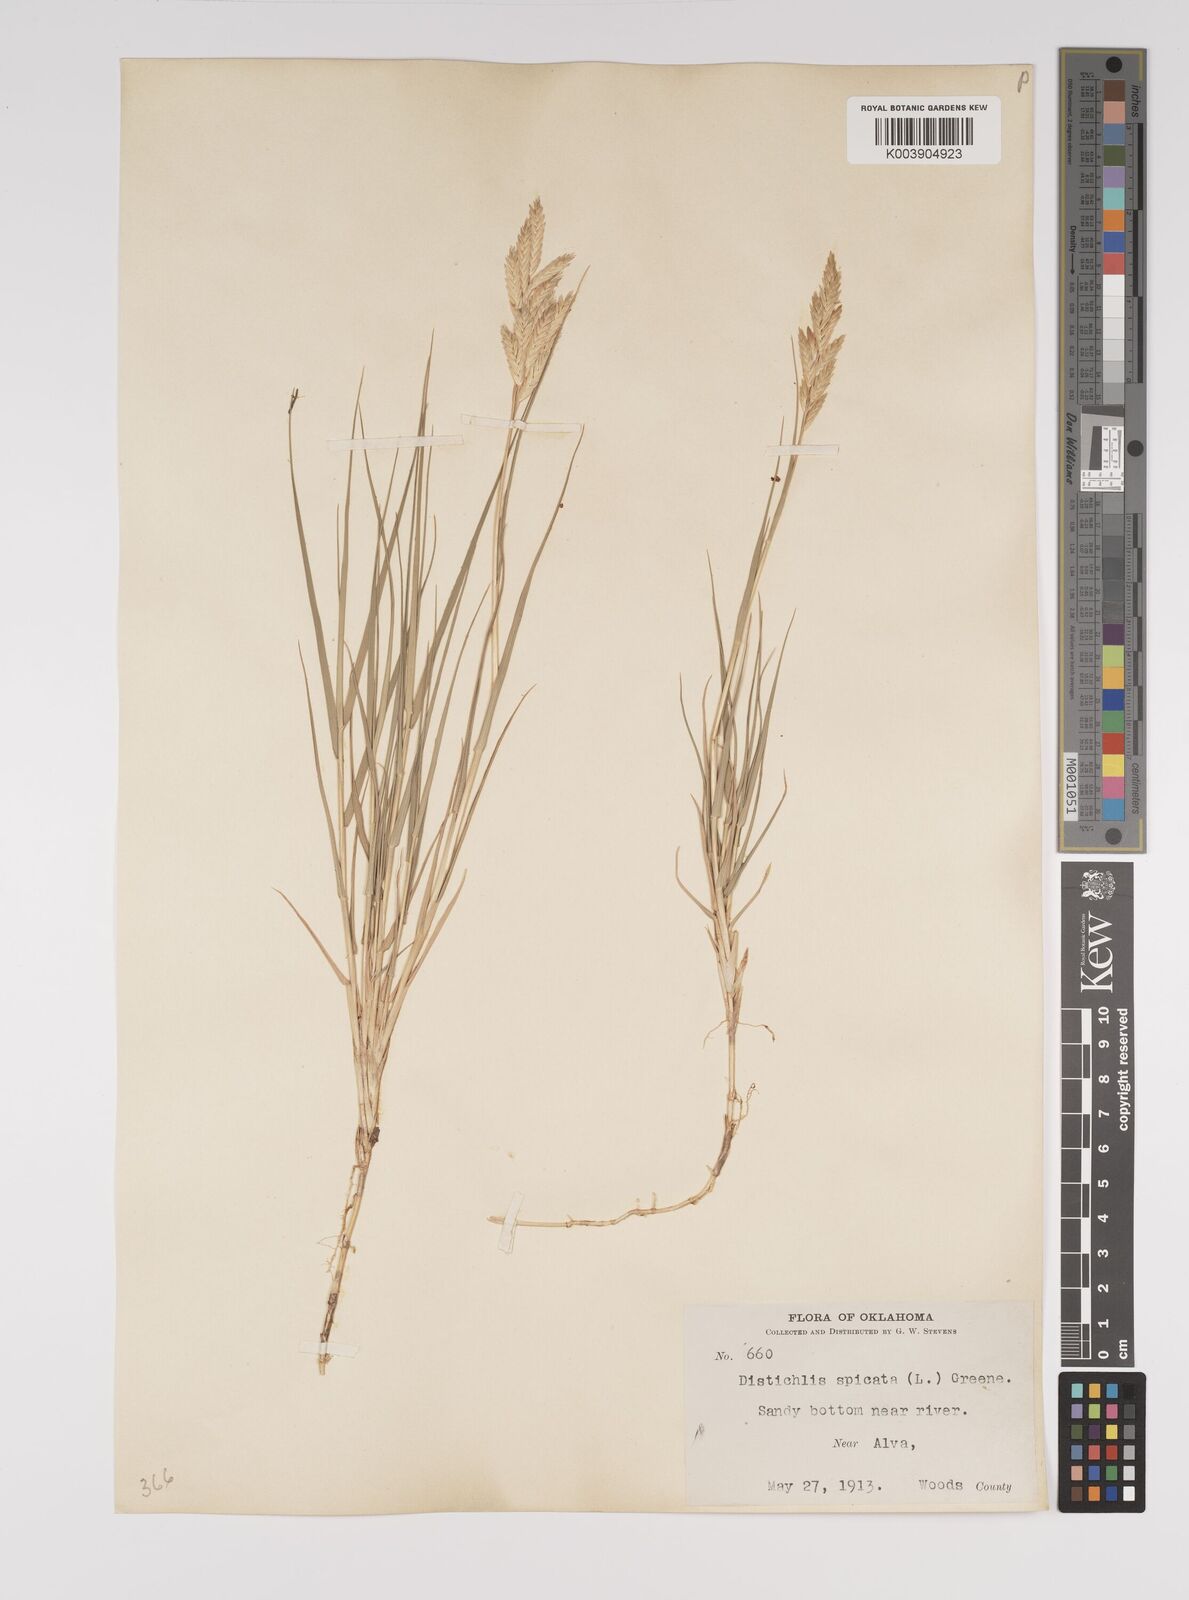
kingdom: Plantae
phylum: Tracheophyta
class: Liliopsida
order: Poales
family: Poaceae
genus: Distichlis
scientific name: Distichlis spicata
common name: Saltgrass
